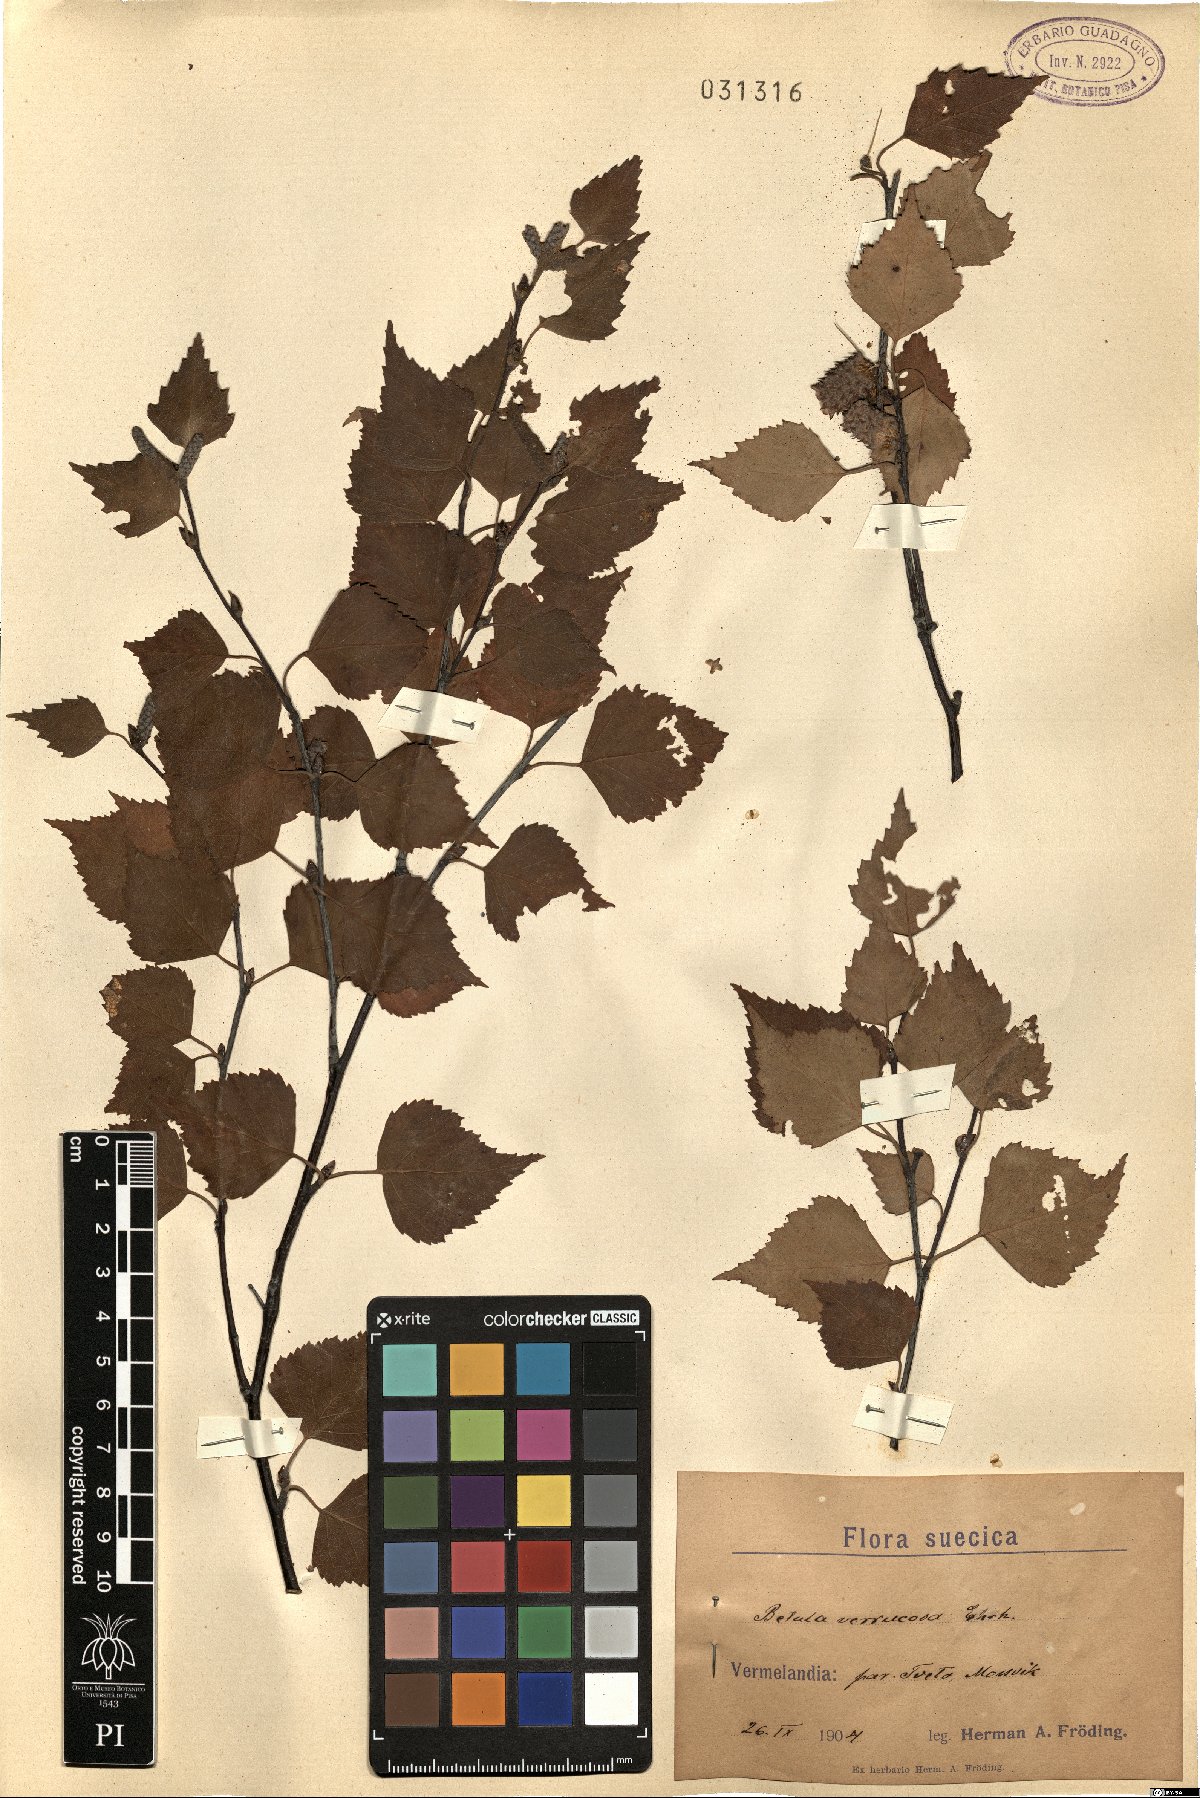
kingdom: Plantae
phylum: Tracheophyta
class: Magnoliopsida
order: Fagales
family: Betulaceae
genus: Betula
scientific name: Betula pendula
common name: Silver birch
